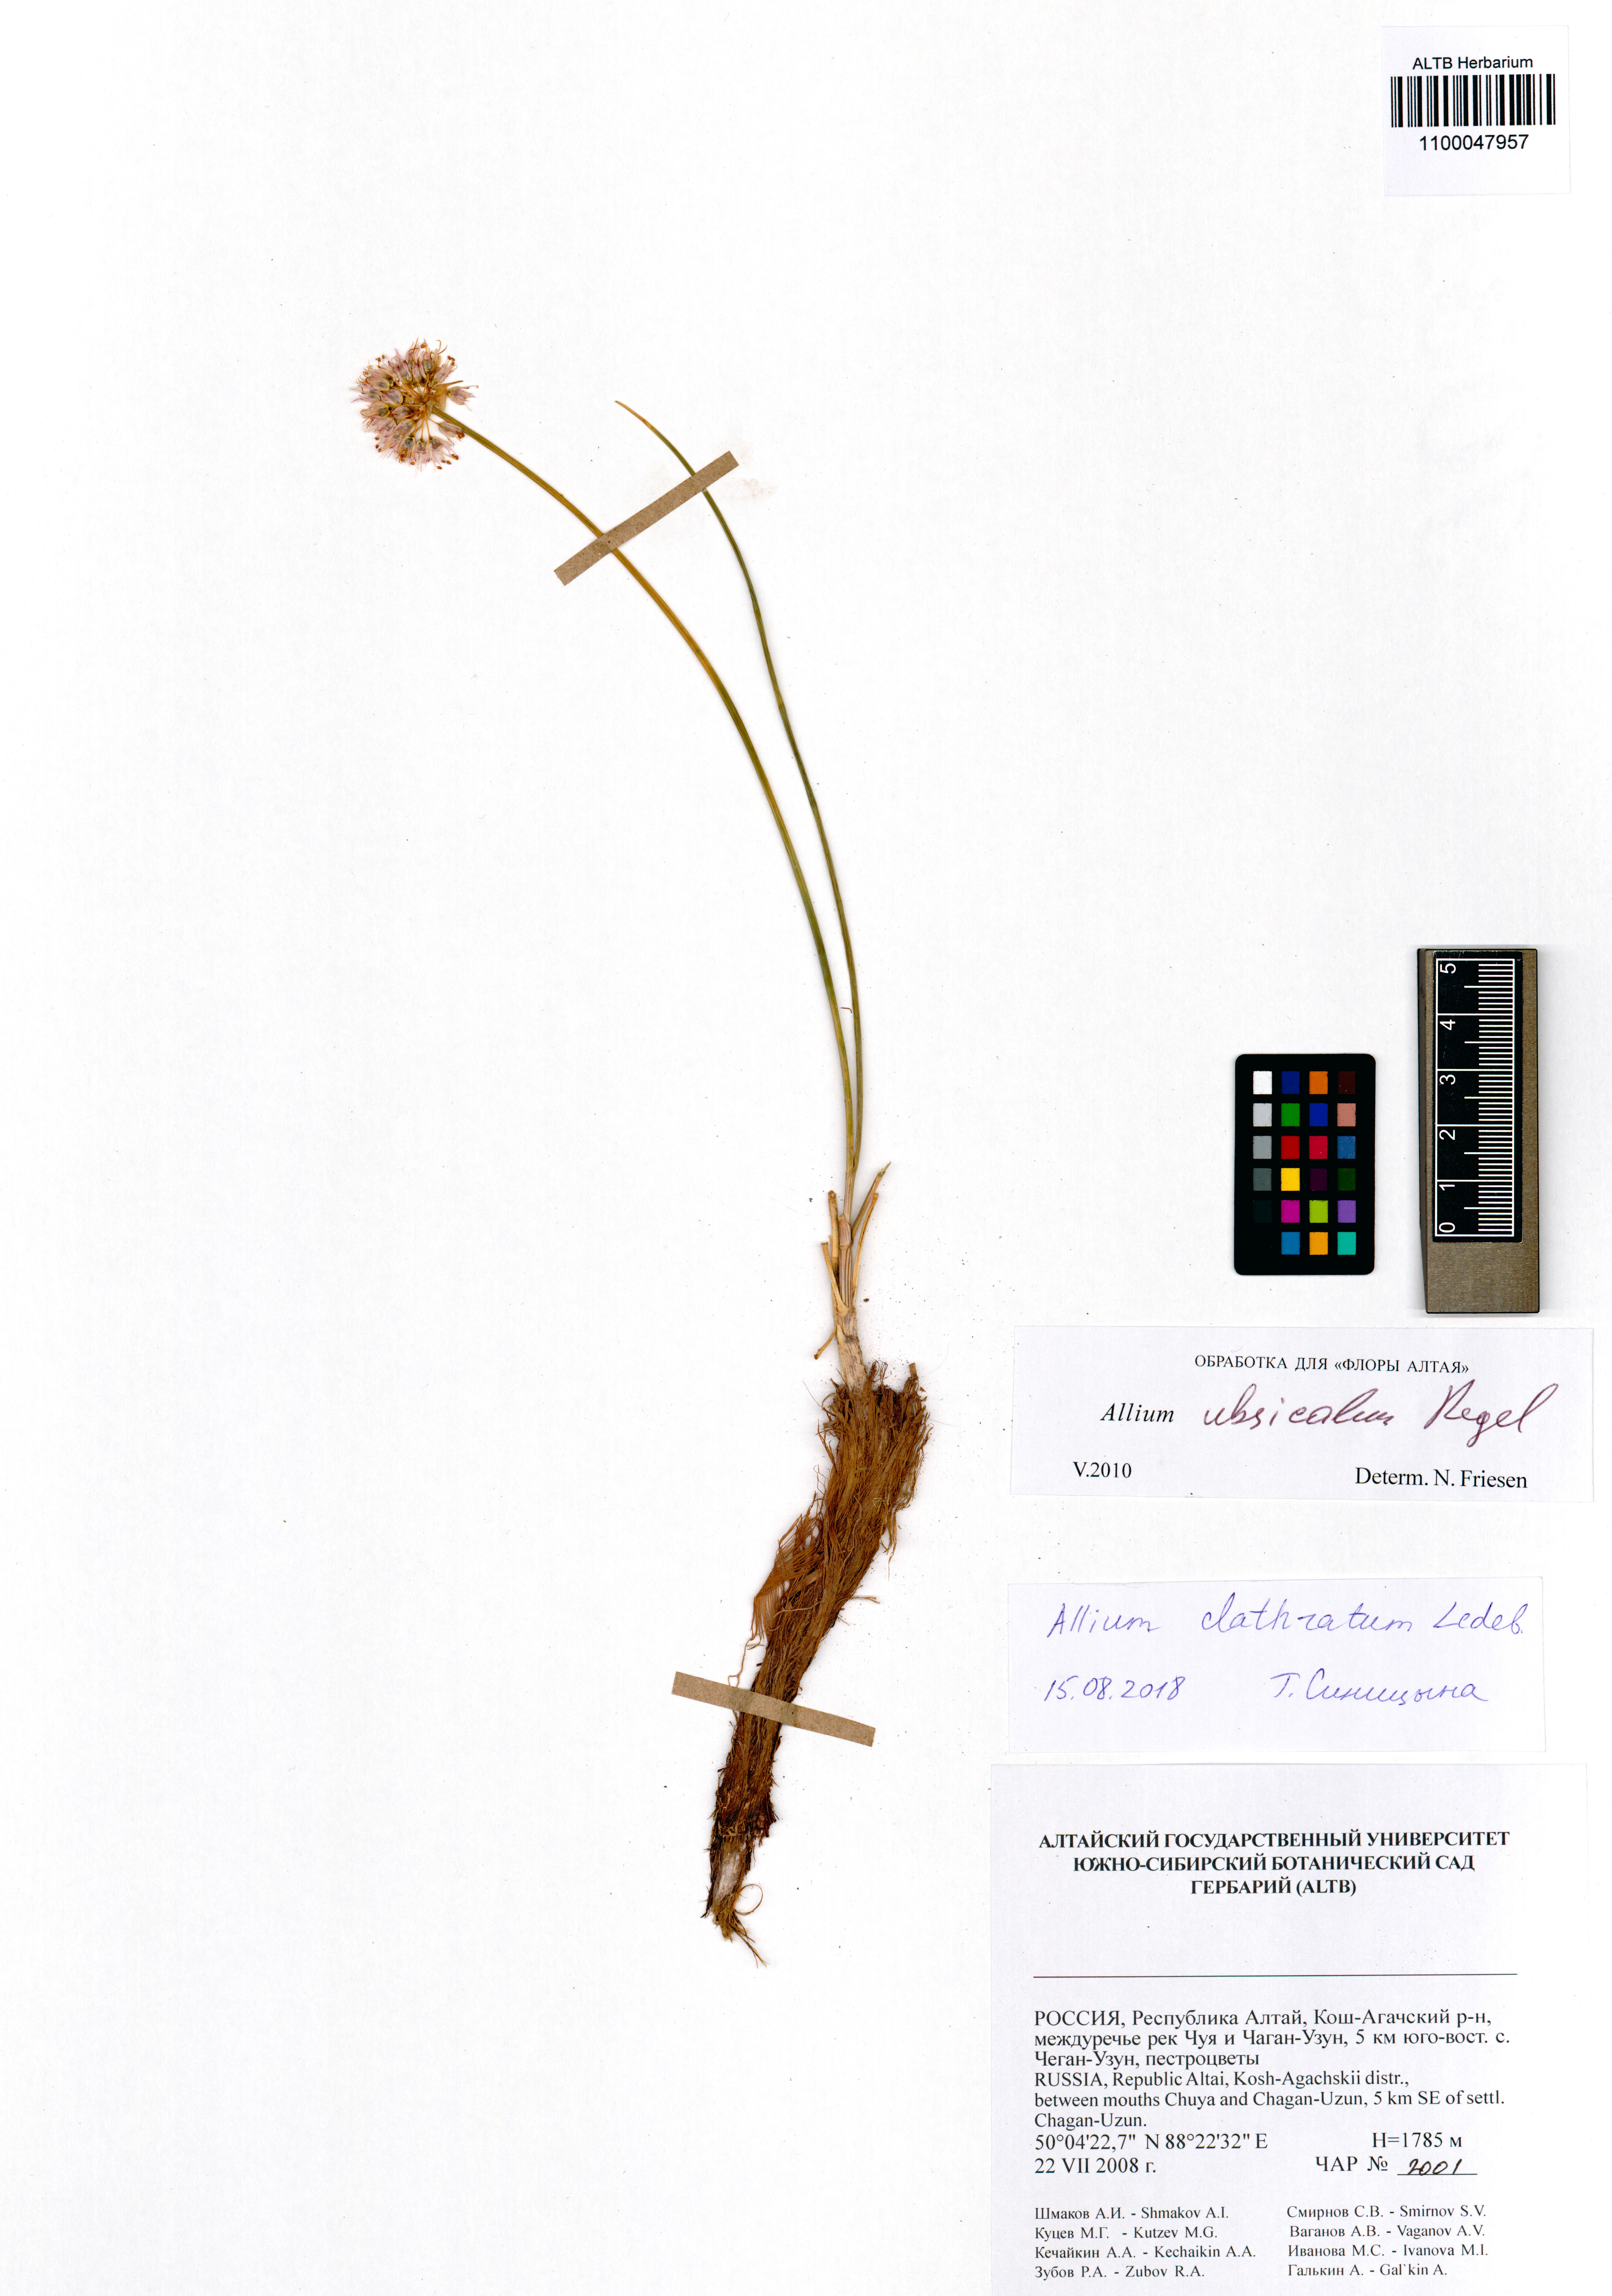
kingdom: Plantae
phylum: Tracheophyta
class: Liliopsida
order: Asparagales
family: Amaryllidaceae
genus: Allium
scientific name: Allium clathratum
